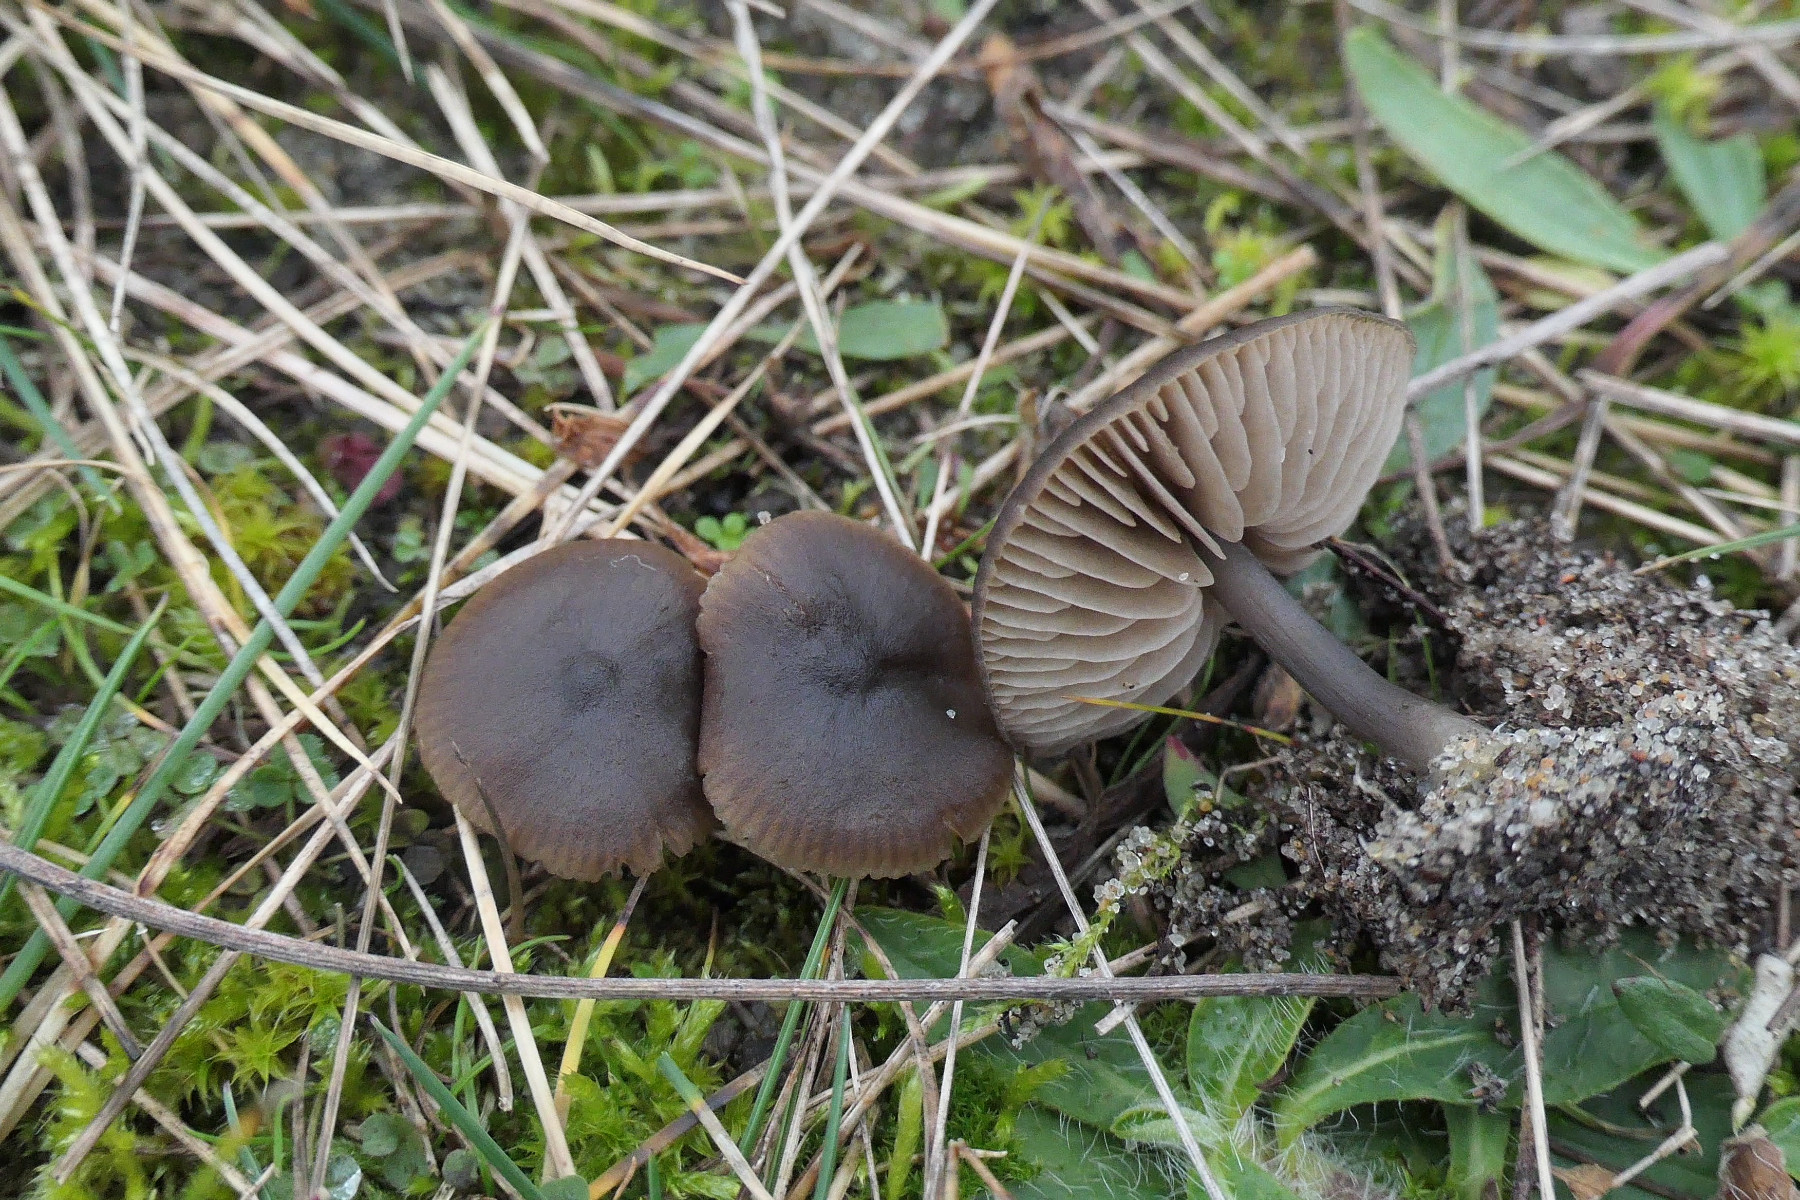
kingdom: Fungi
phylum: Basidiomycota
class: Agaricomycetes
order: Agaricales
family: Entolomataceae
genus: Entoloma
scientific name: Entoloma vindobonense
